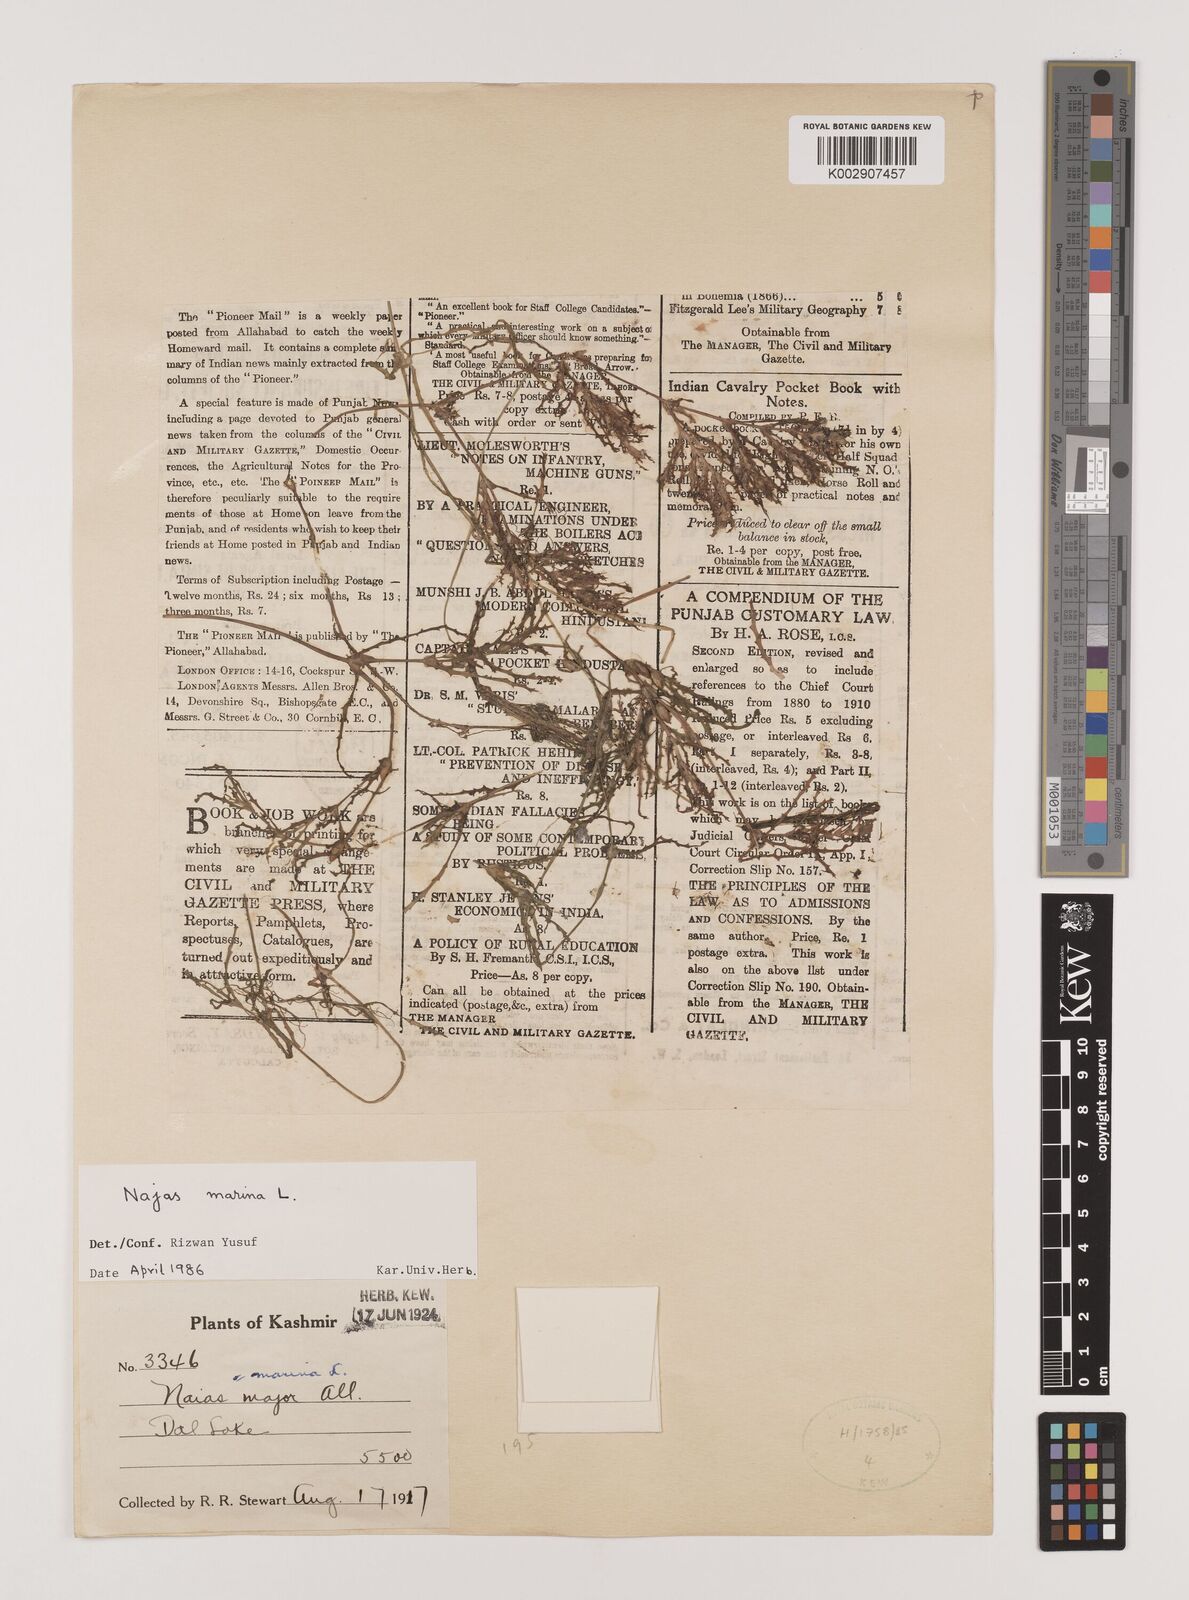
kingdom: Plantae
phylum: Tracheophyta
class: Liliopsida
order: Alismatales
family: Hydrocharitaceae
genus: Najas
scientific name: Najas marina
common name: Holly-leaved naiad
